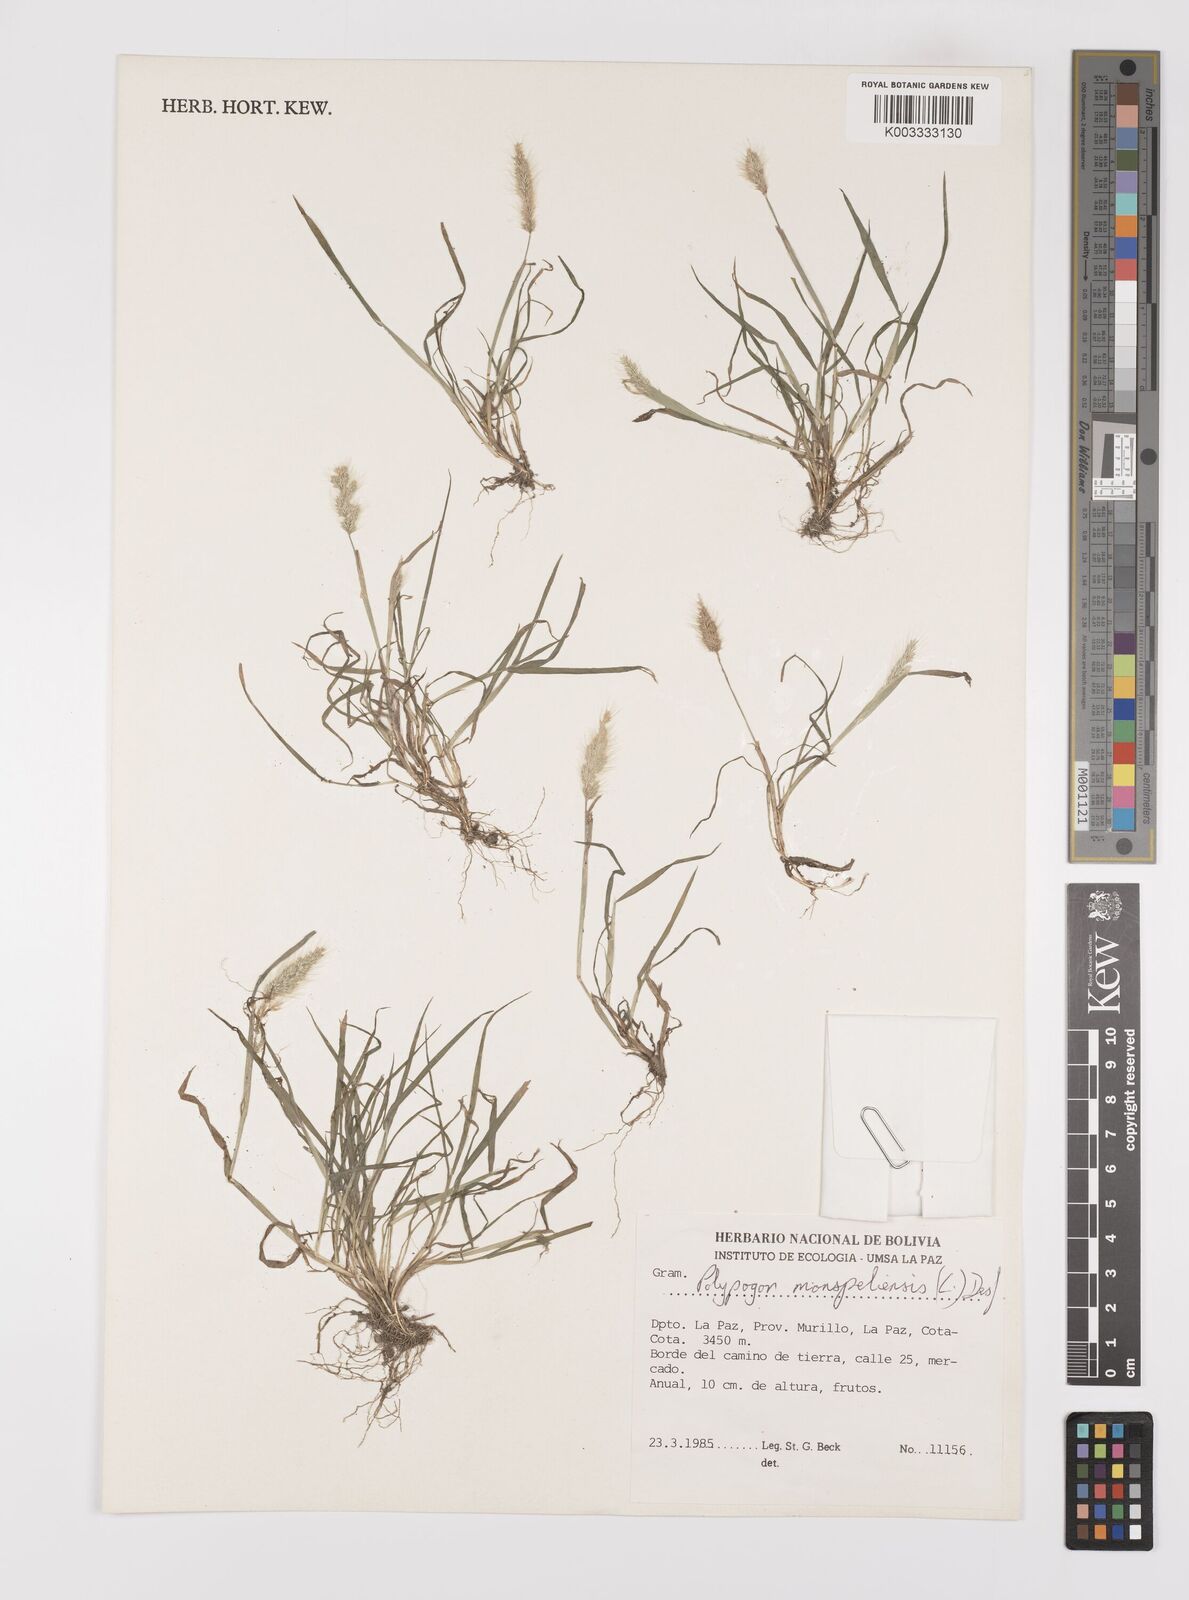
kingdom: Plantae
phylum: Tracheophyta
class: Liliopsida
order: Poales
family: Poaceae
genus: Polypogon
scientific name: Polypogon monspeliensis
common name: Annual rabbitsfoot grass
